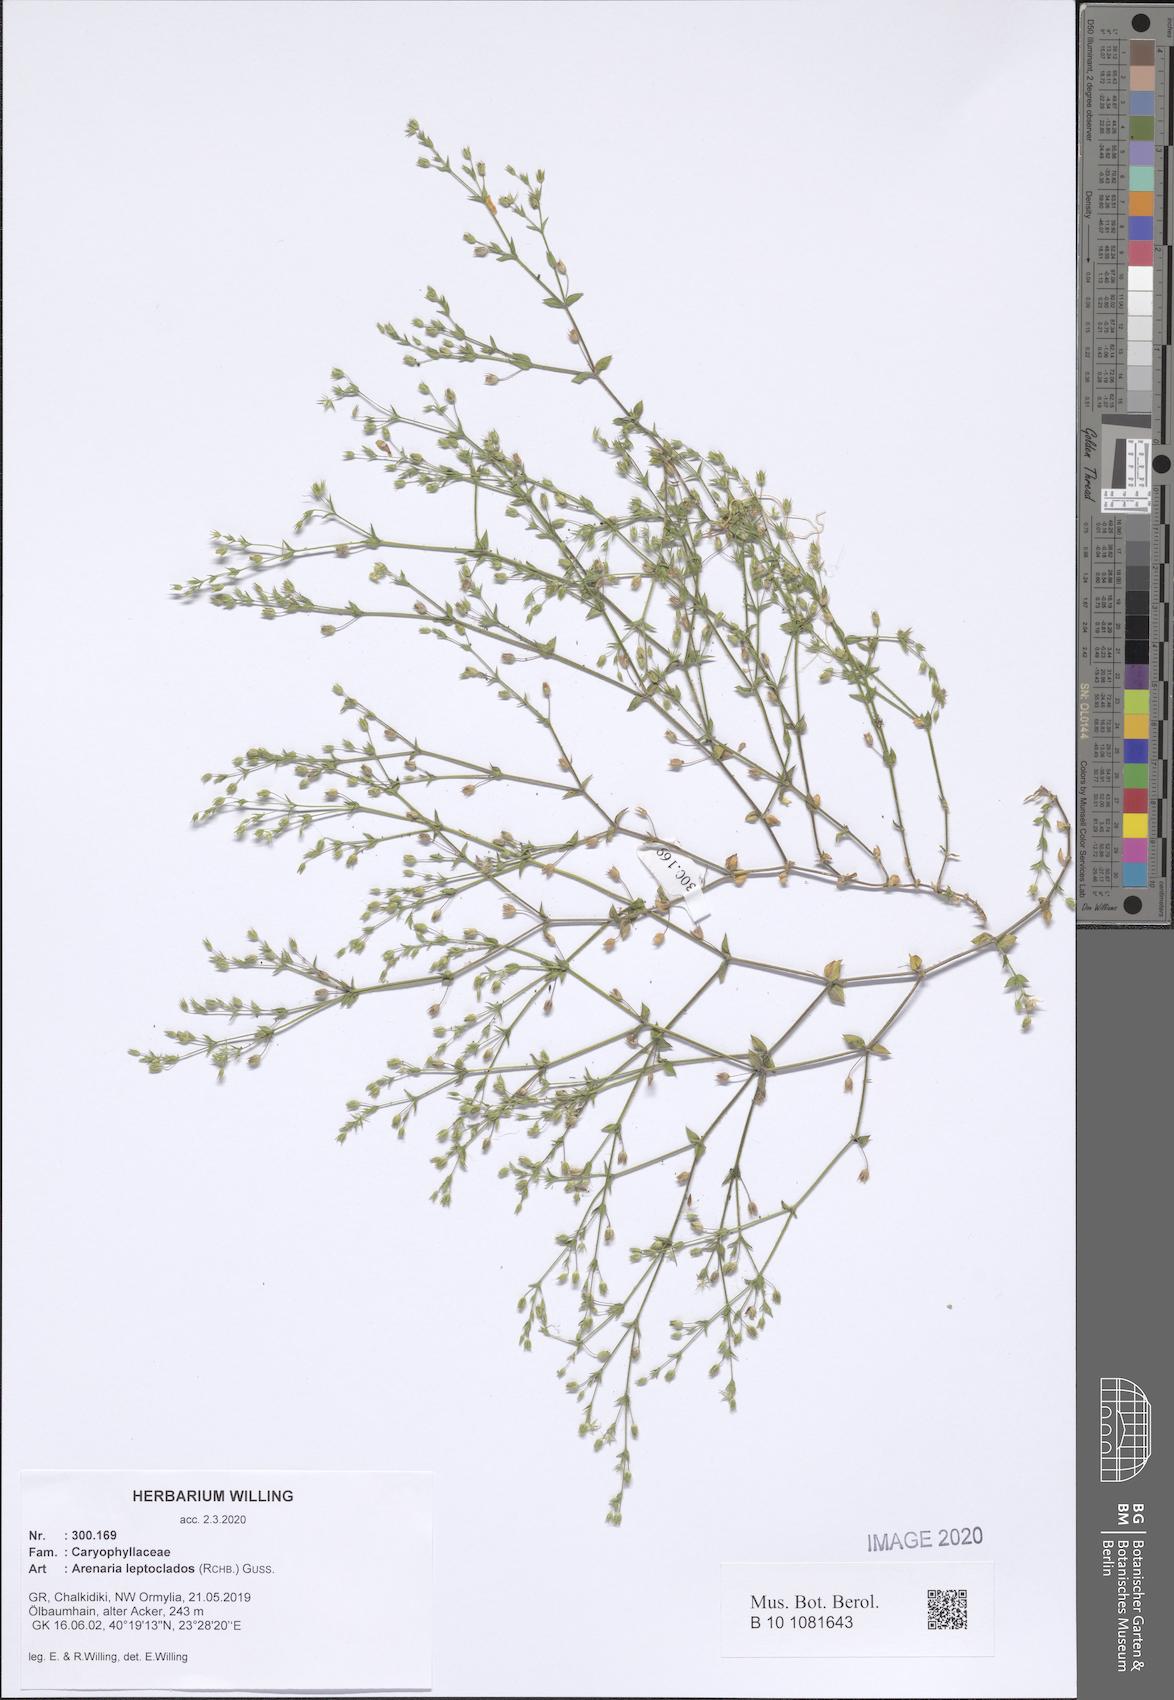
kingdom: Plantae
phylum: Tracheophyta
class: Magnoliopsida
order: Caryophyllales
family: Caryophyllaceae
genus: Arenaria
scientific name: Arenaria leptoclados
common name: Thyme-leaved sandwort
